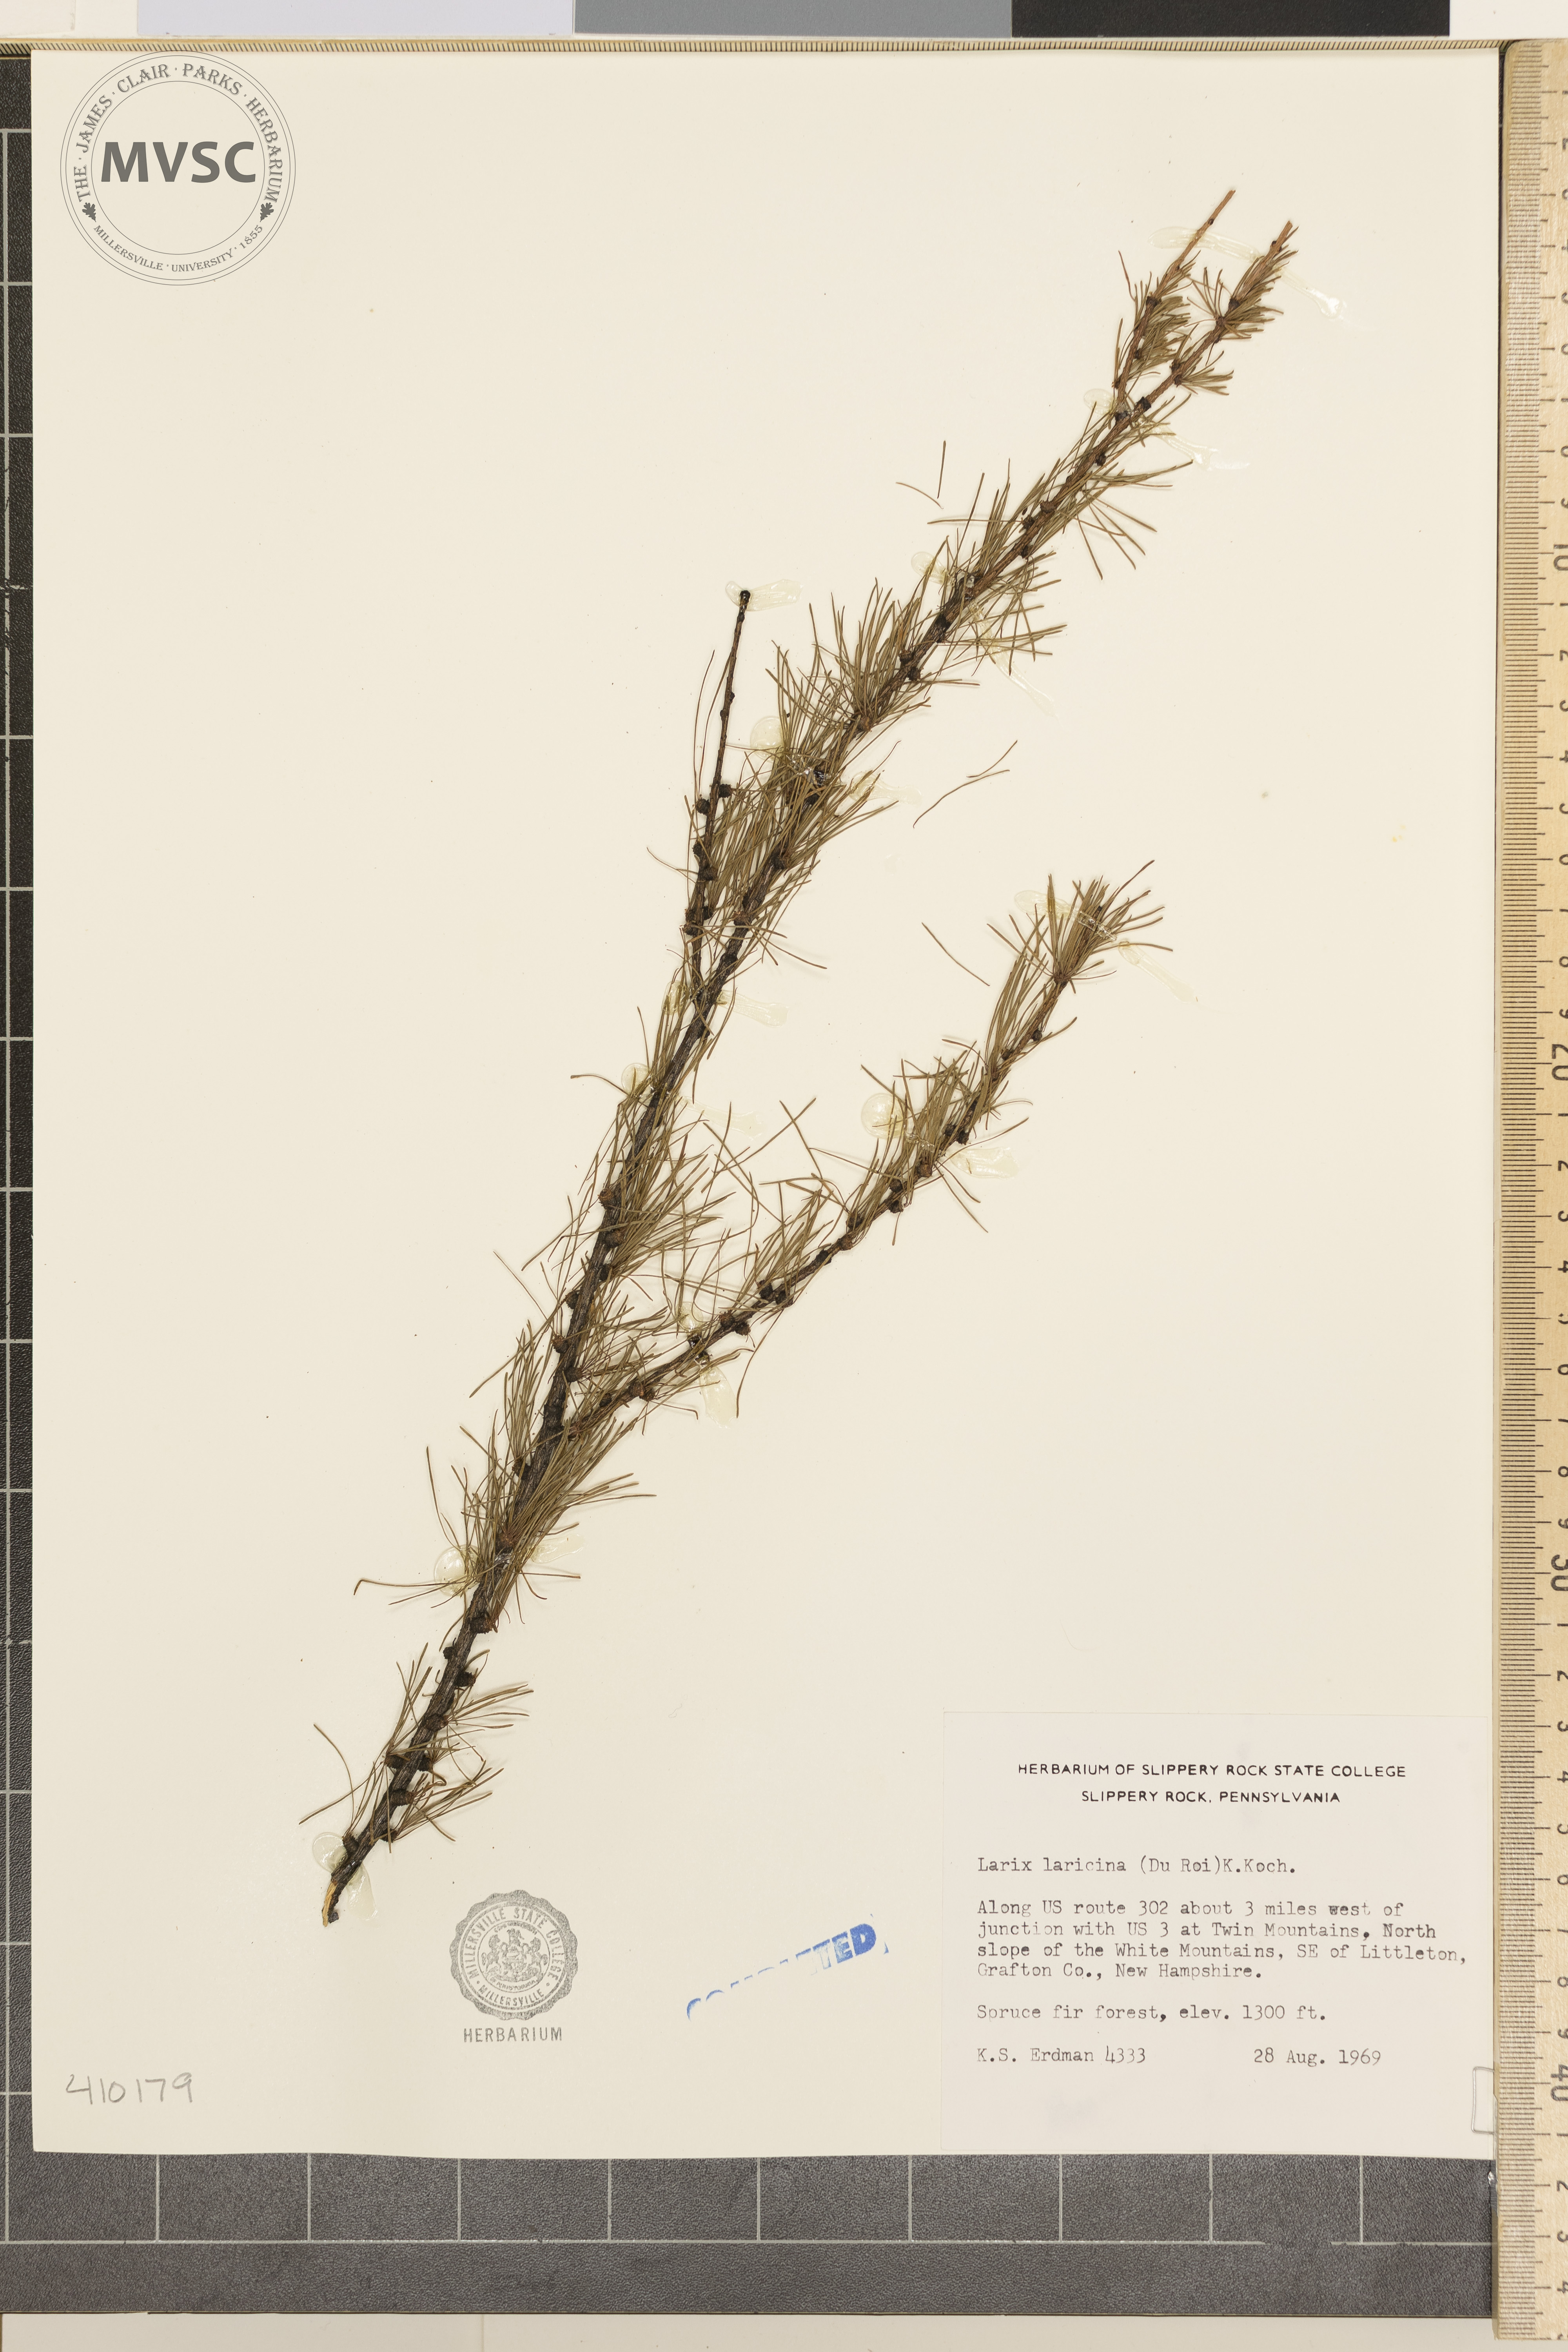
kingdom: Plantae
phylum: Tracheophyta
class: Pinopsida
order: Pinales
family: Pinaceae
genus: Larix
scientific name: Larix laricina
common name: American larch
